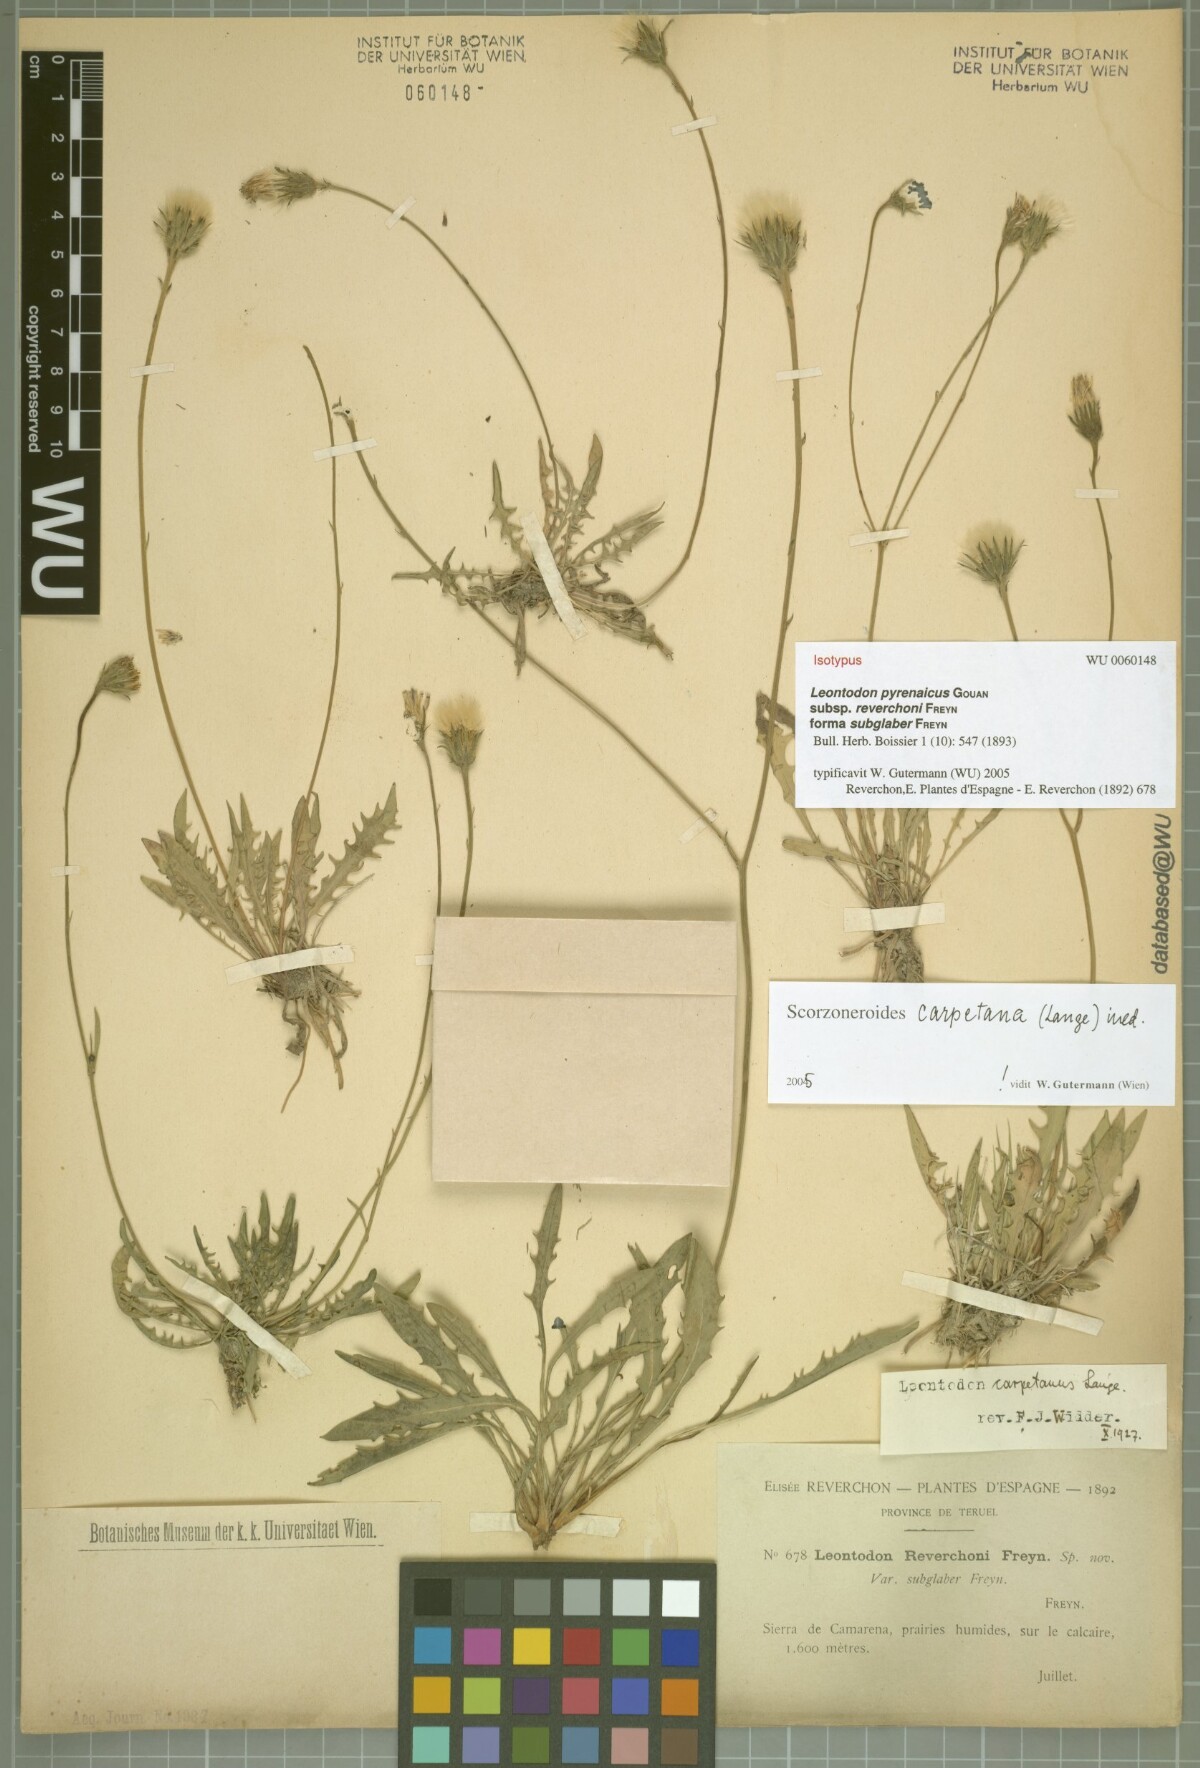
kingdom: Plantae
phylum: Tracheophyta
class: Magnoliopsida
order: Asterales
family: Asteraceae
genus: Scorzoneroides
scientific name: Scorzoneroides pyrenaica
